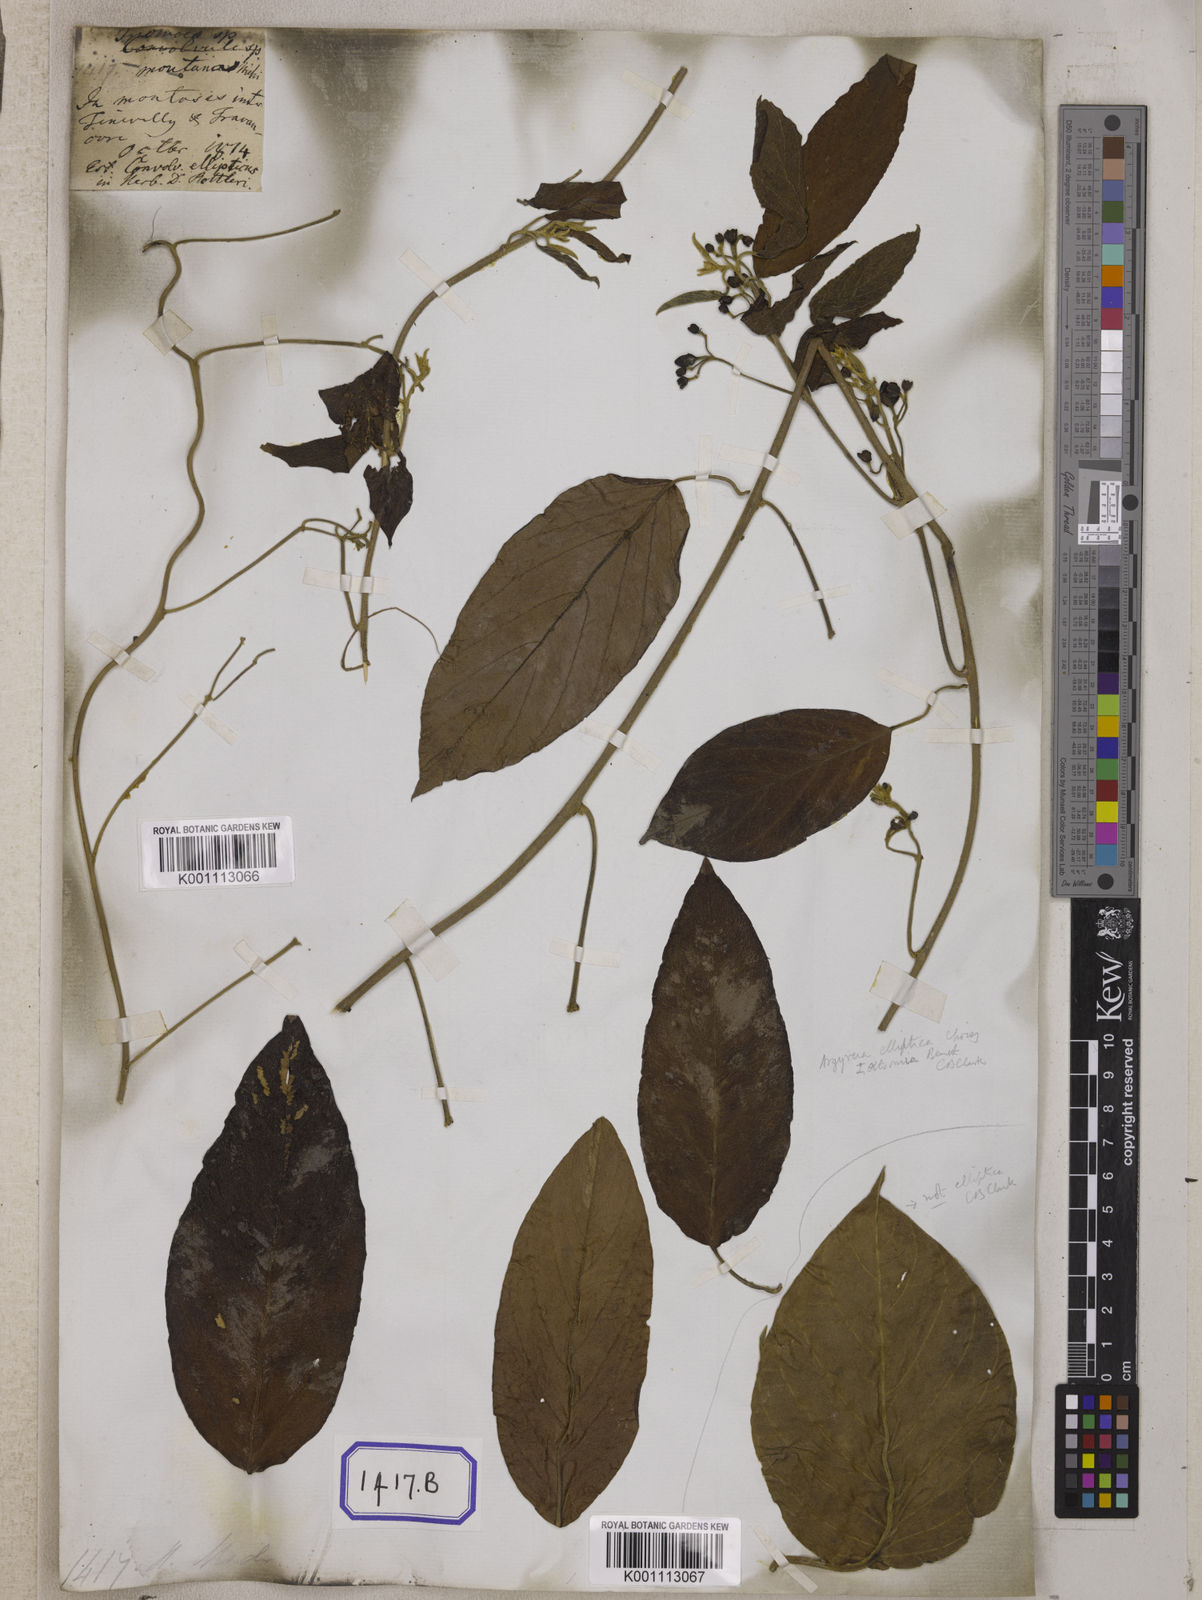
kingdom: Plantae
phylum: Tracheophyta
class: Magnoliopsida
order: Solanales
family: Convolvulaceae
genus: Convolvulus
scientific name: Convolvulus
